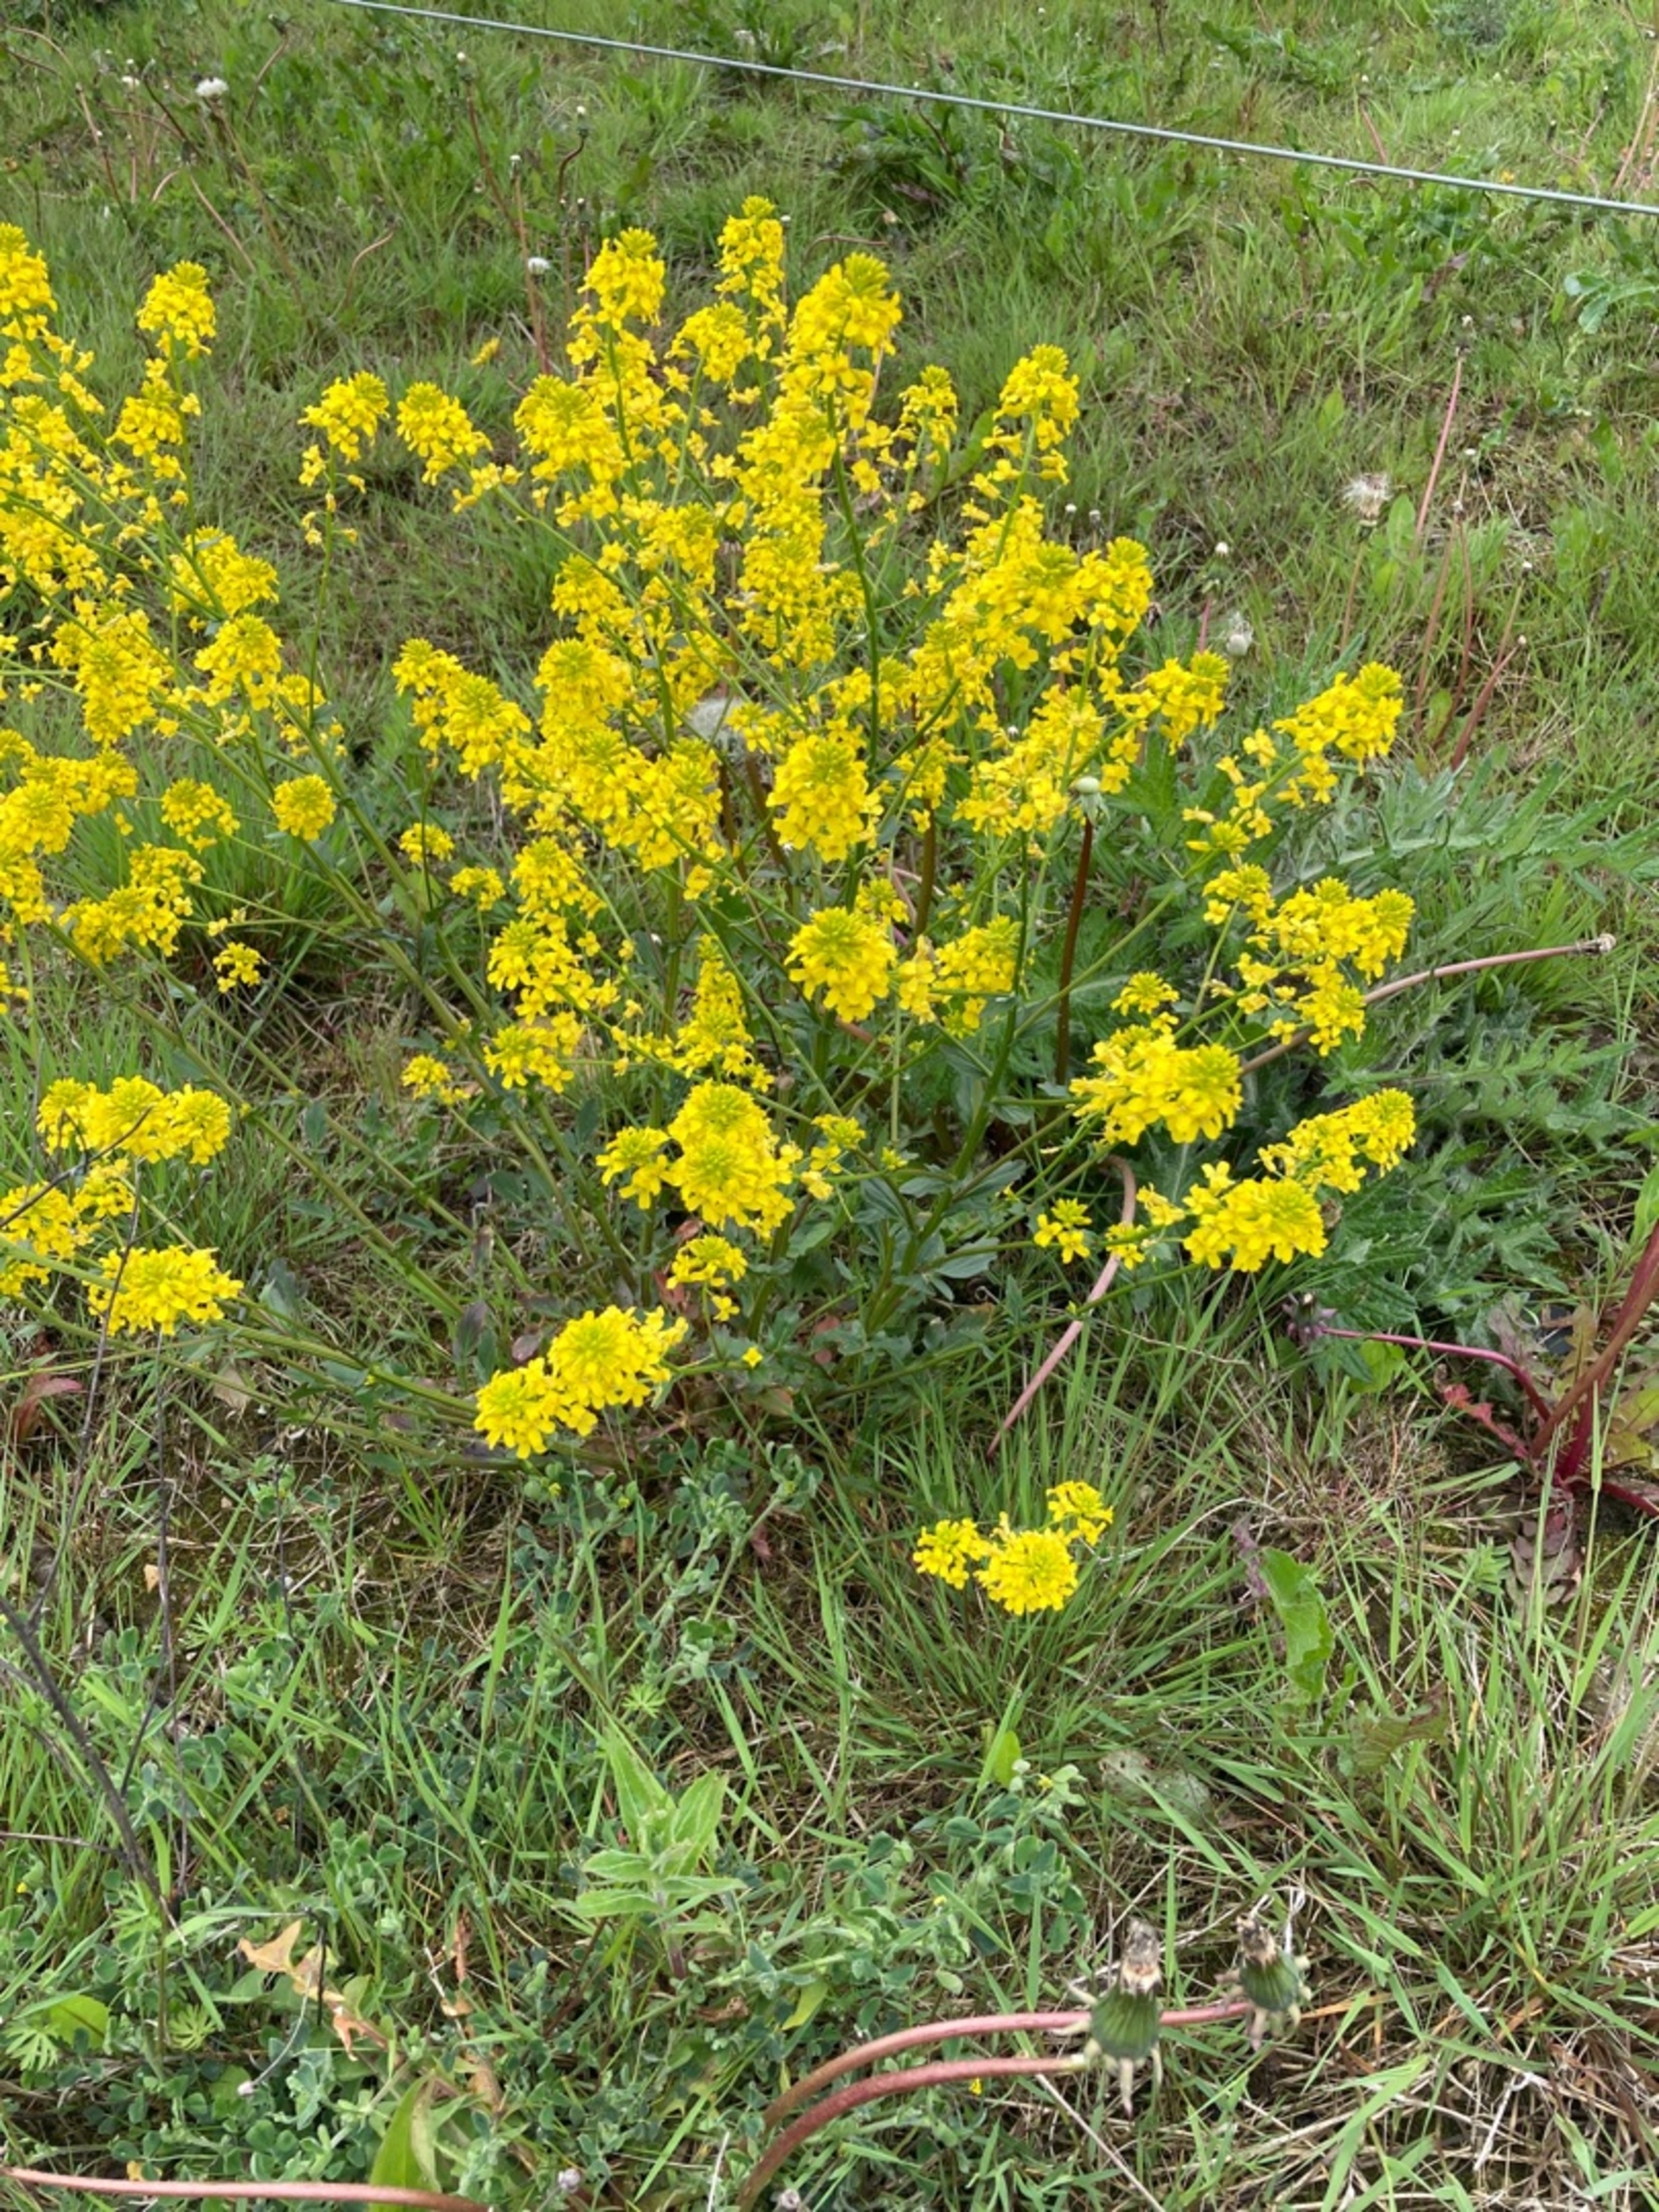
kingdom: Plantae
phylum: Tracheophyta
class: Magnoliopsida
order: Brassicales
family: Brassicaceae
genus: Barbarea
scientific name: Barbarea
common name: Vinterkarseslægten
